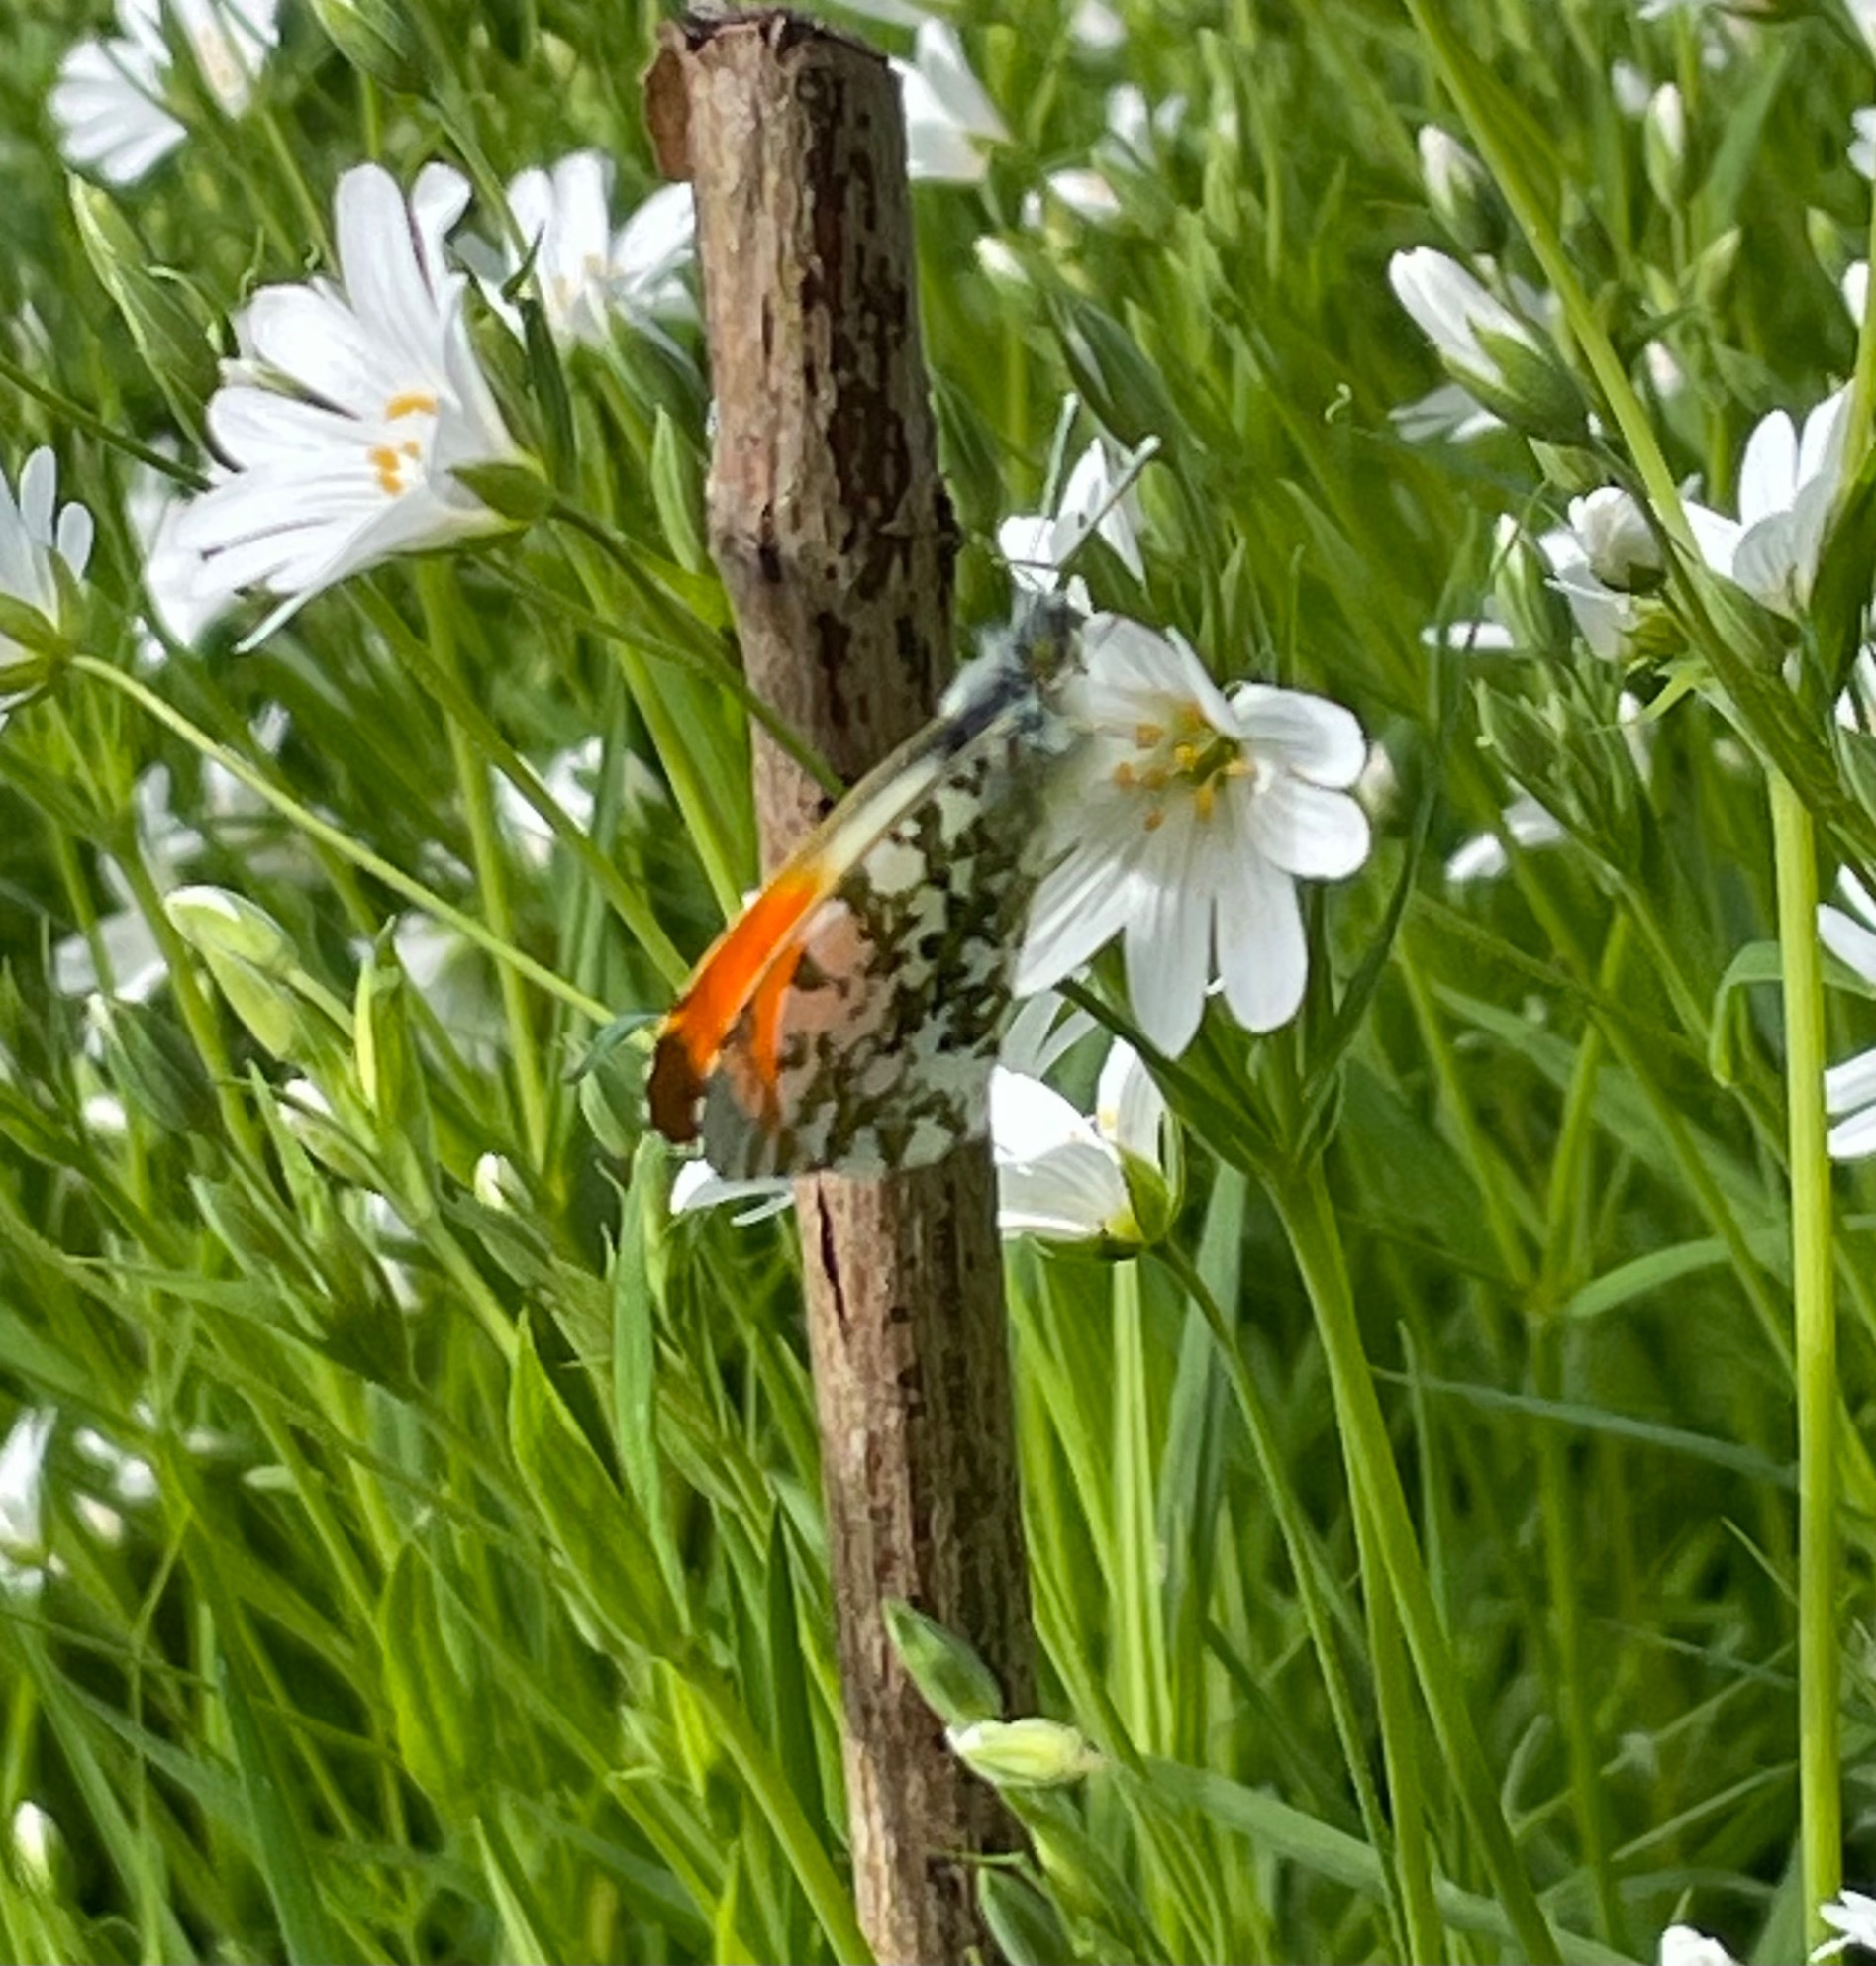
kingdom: Animalia
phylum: Arthropoda
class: Insecta
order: Lepidoptera
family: Pieridae
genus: Anthocharis
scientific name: Anthocharis cardamines
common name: Aurora
